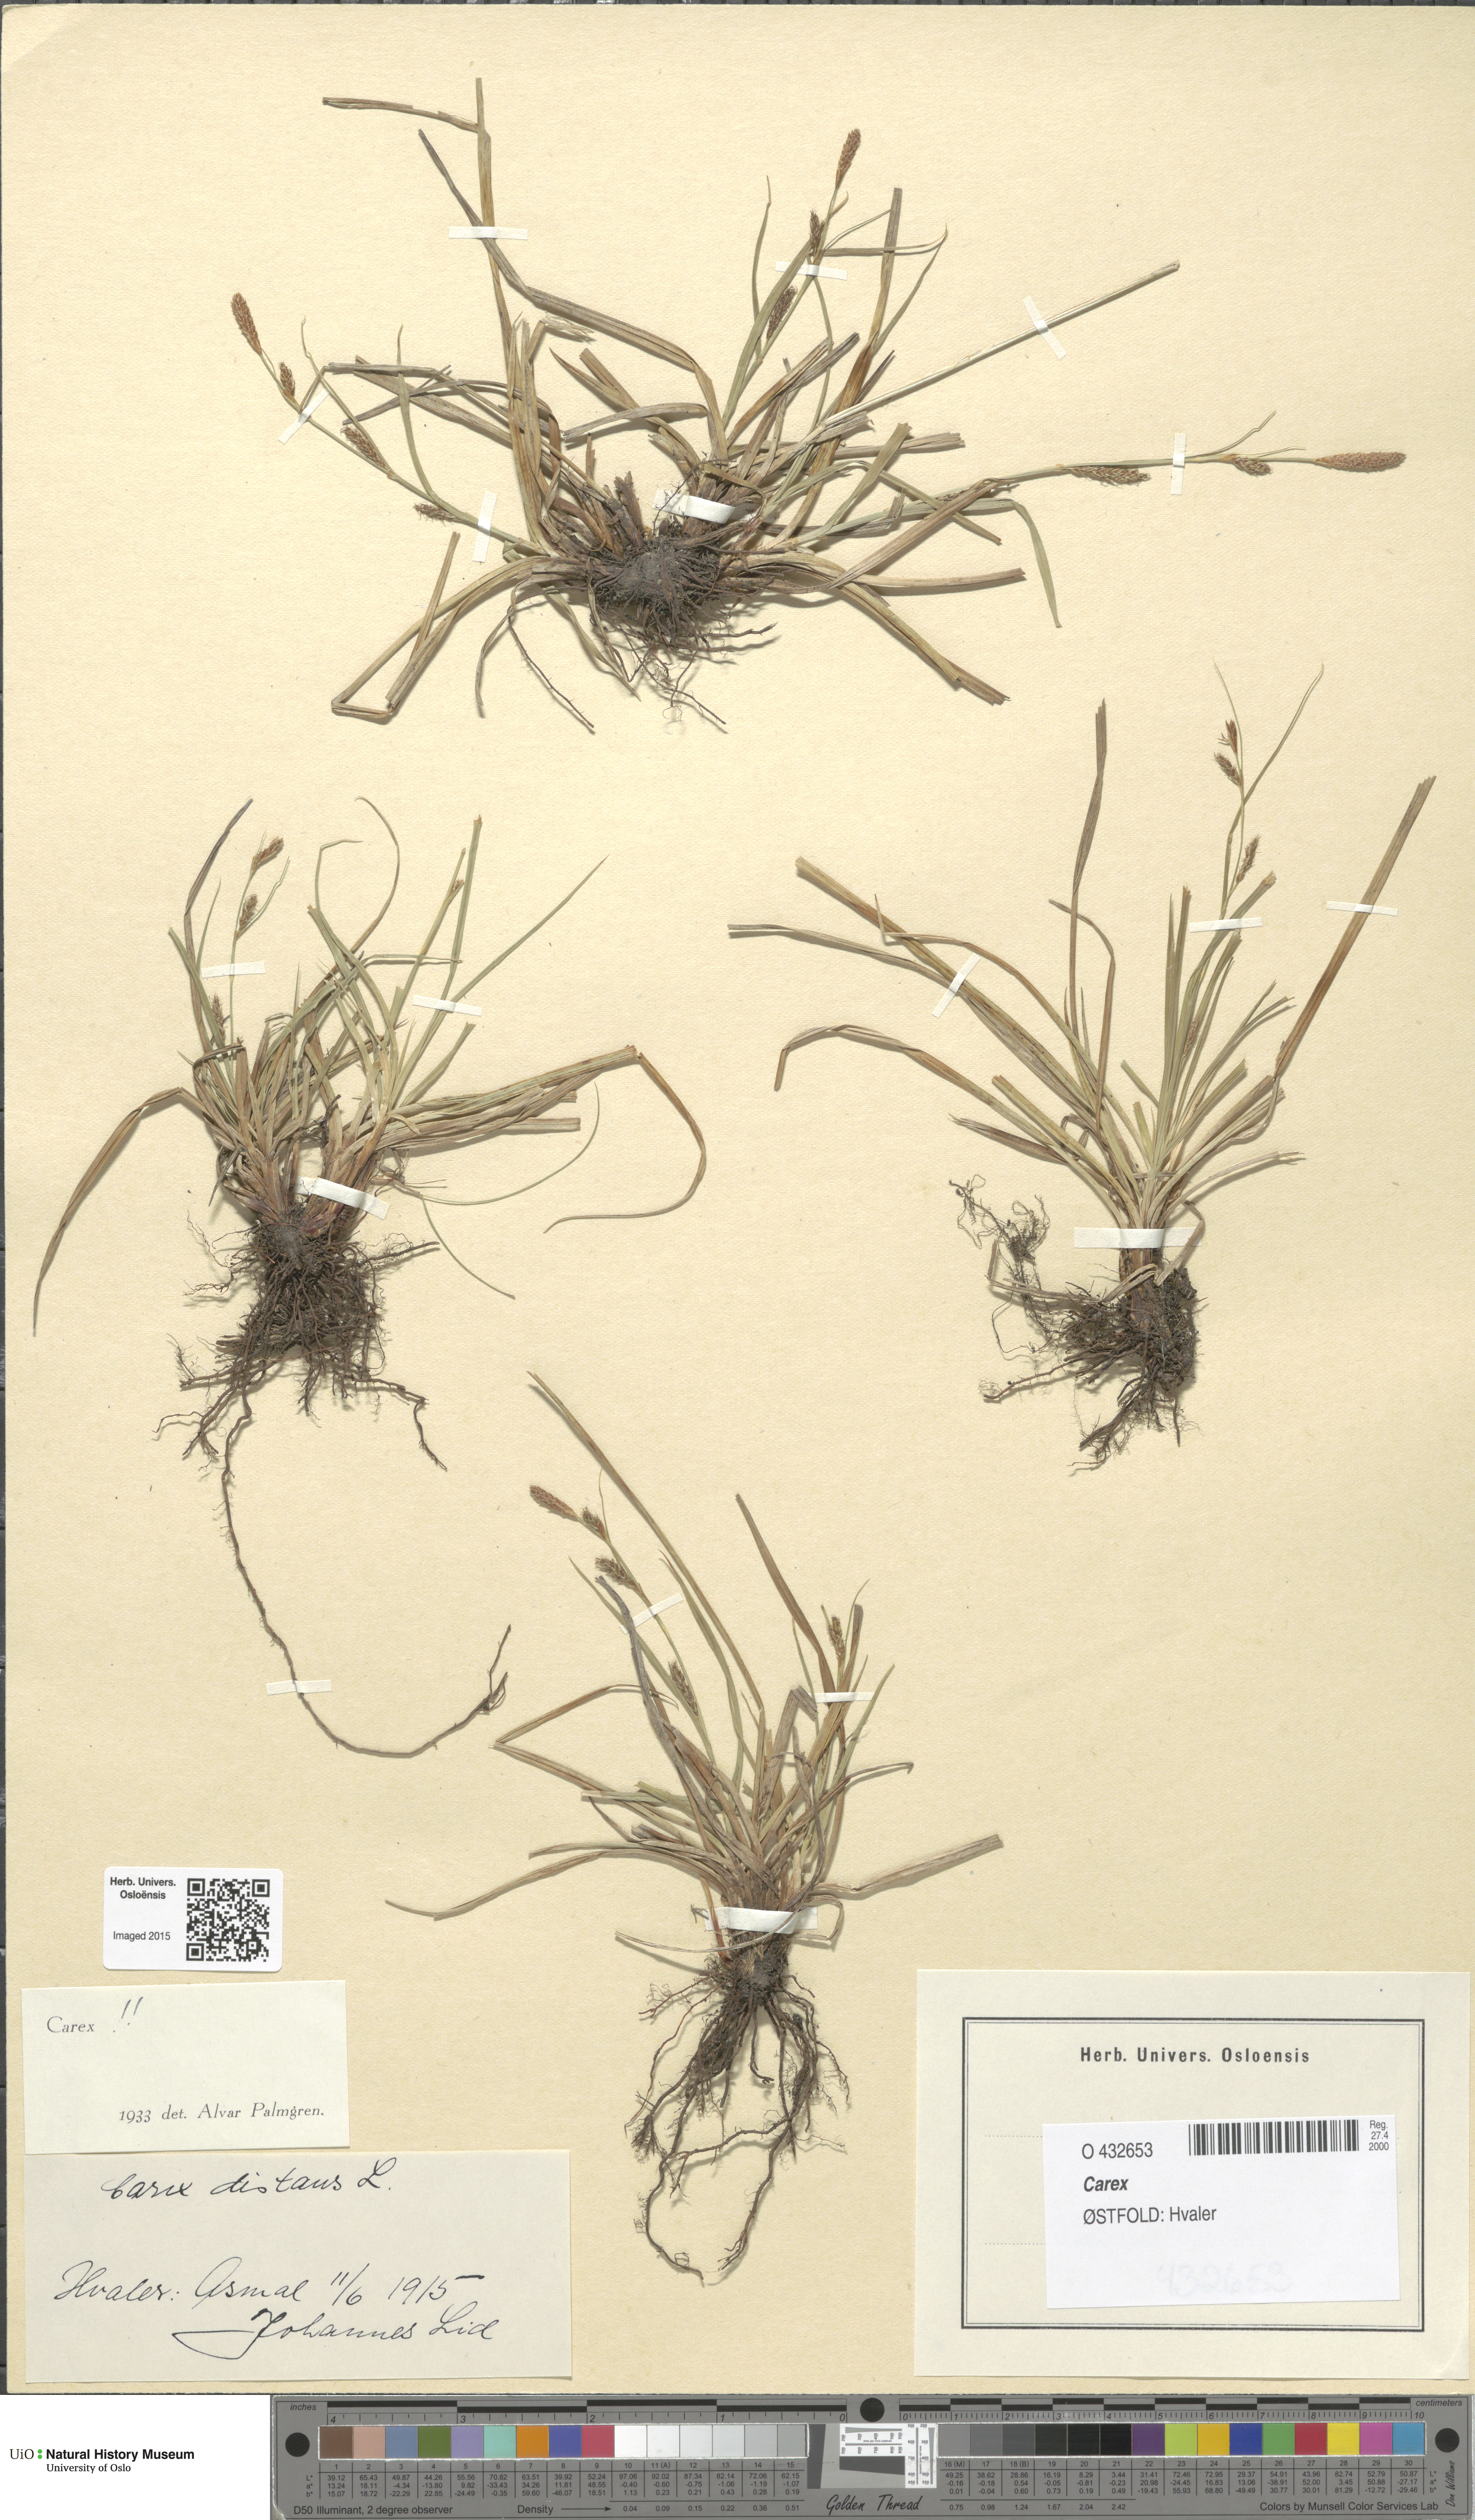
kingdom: Plantae
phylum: Tracheophyta
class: Liliopsida
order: Poales
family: Cyperaceae
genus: Carex
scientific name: Carex
